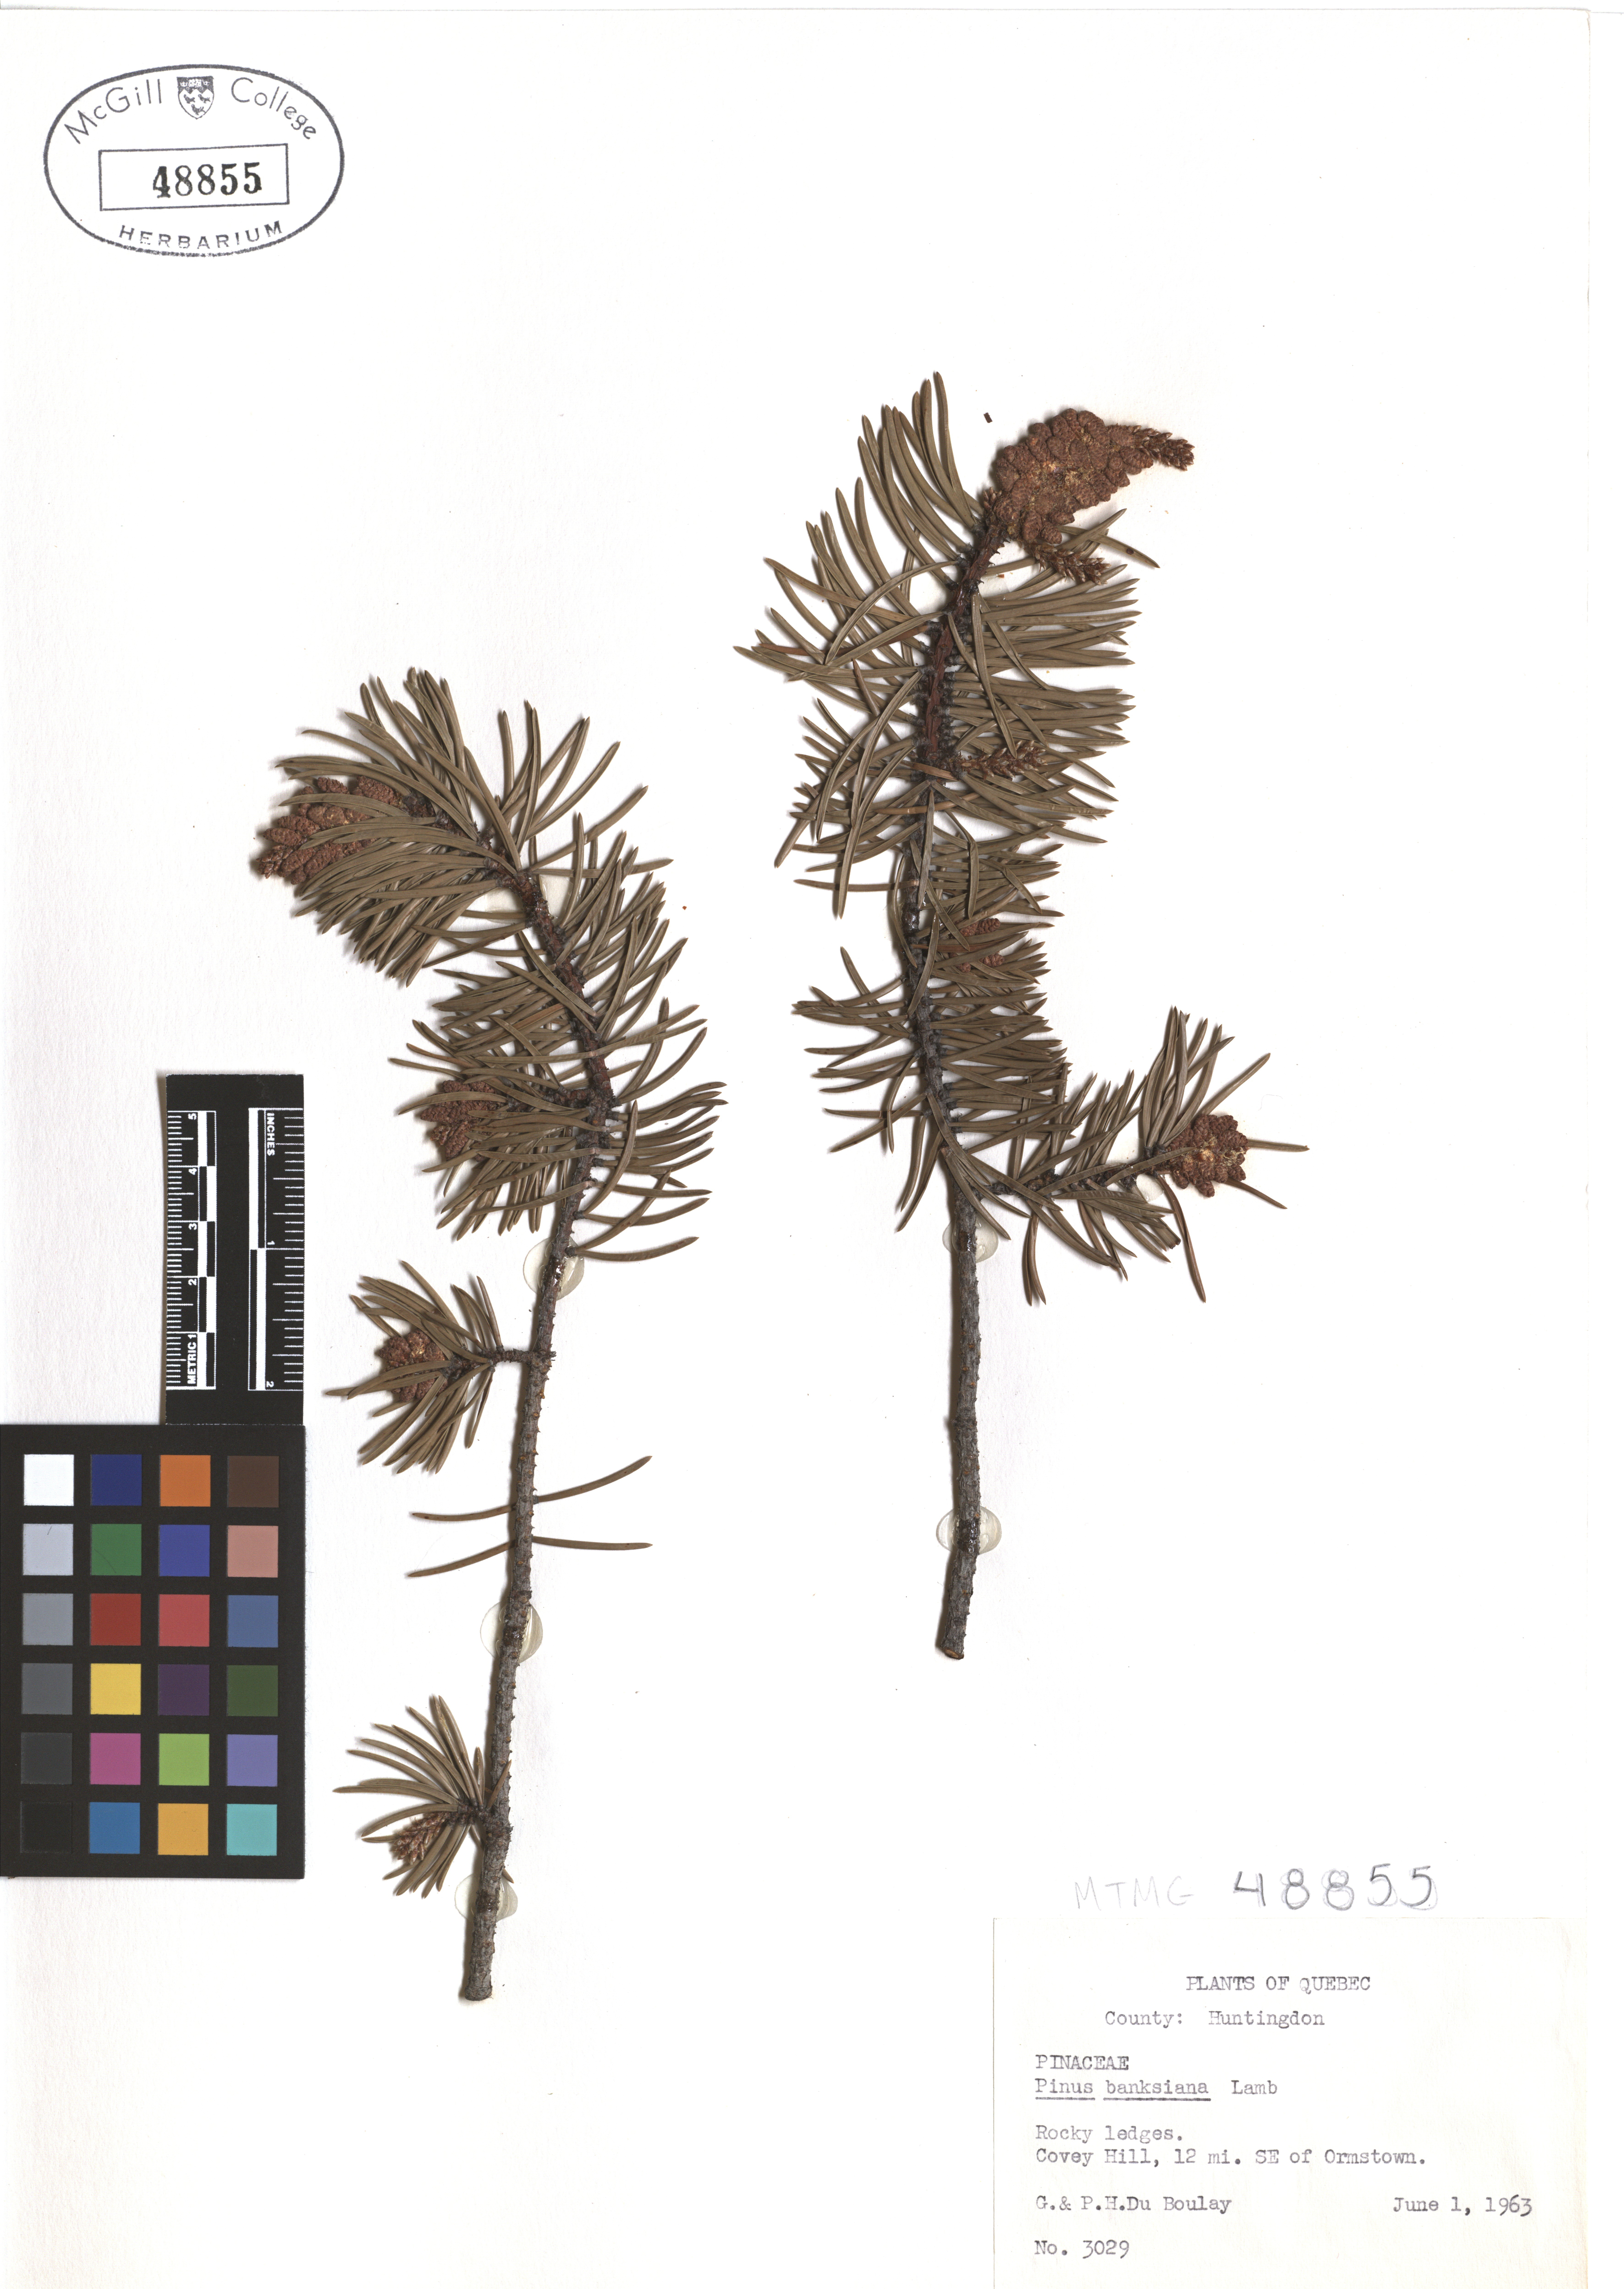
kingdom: Plantae
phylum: Tracheophyta
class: Pinopsida
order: Pinales
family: Pinaceae
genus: Pinus
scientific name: Pinus banksiana
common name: Jack pine
